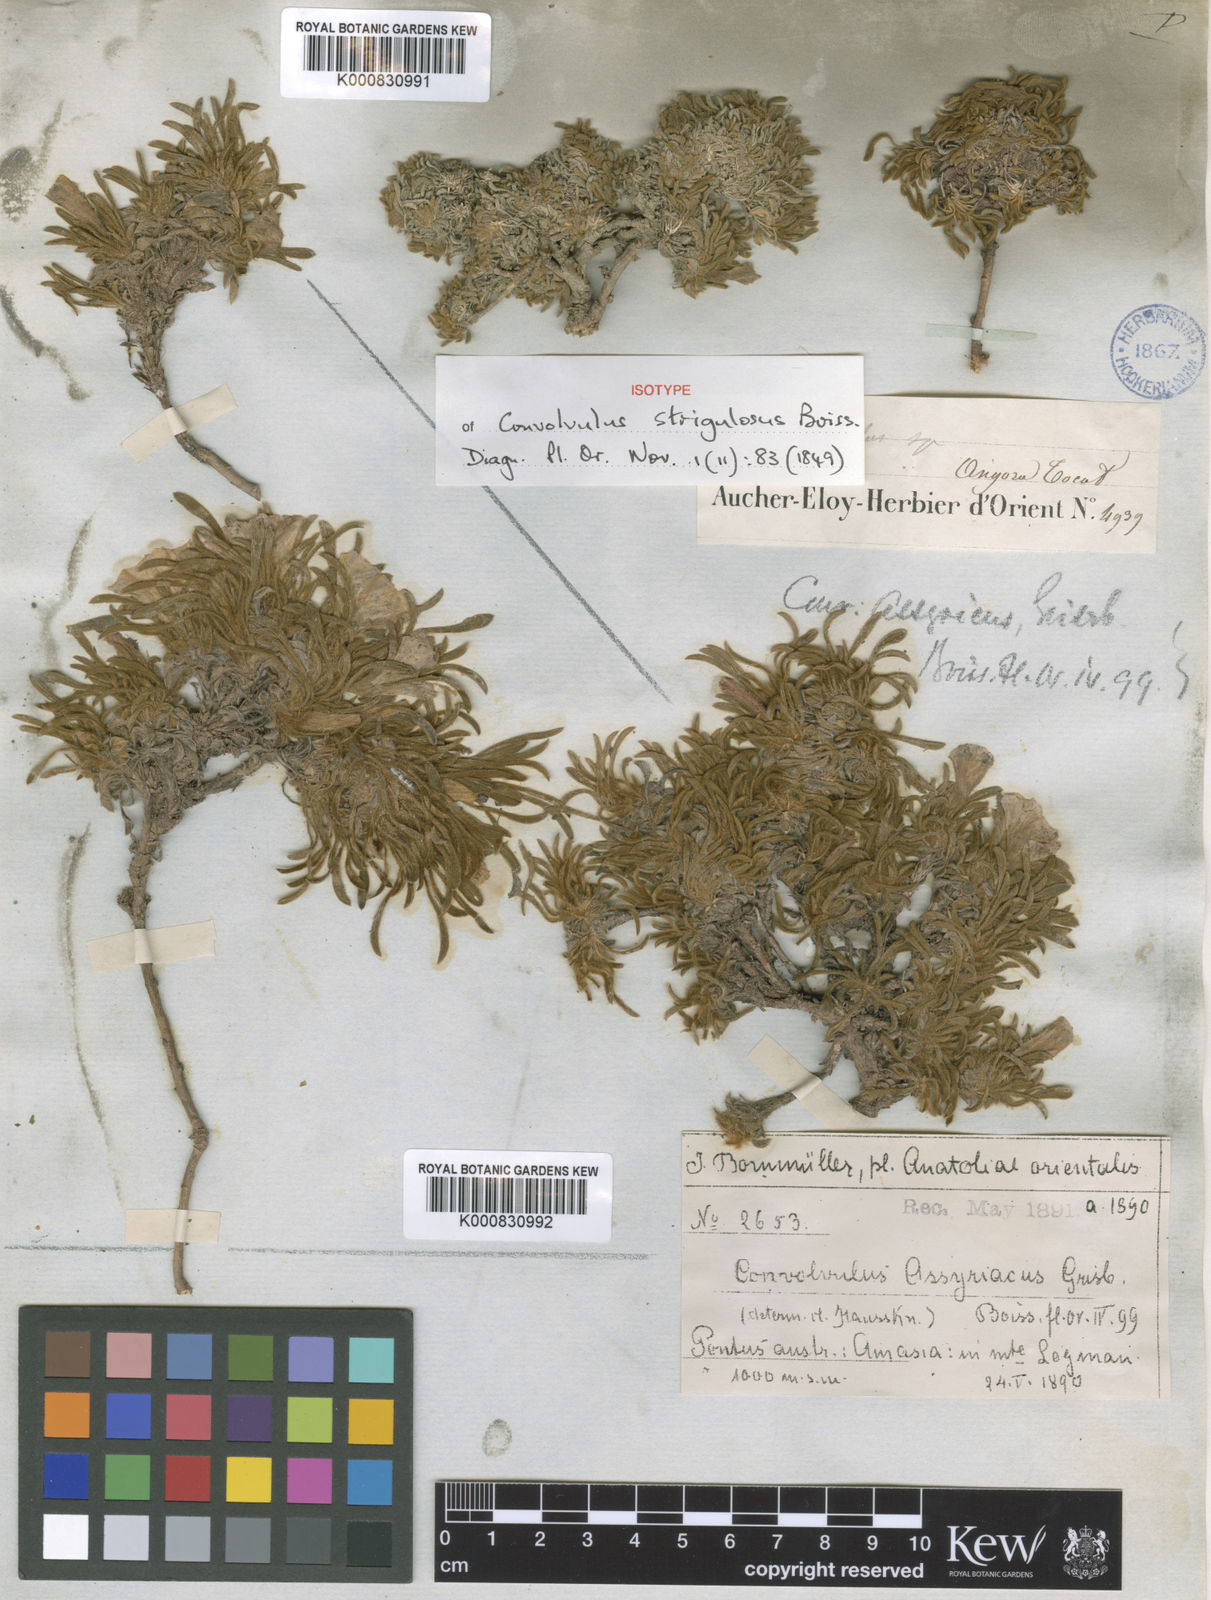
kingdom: Plantae
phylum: Tracheophyta
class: Magnoliopsida
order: Solanales
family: Convolvulaceae
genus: Convolvulus
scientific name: Convolvulus assyricus
